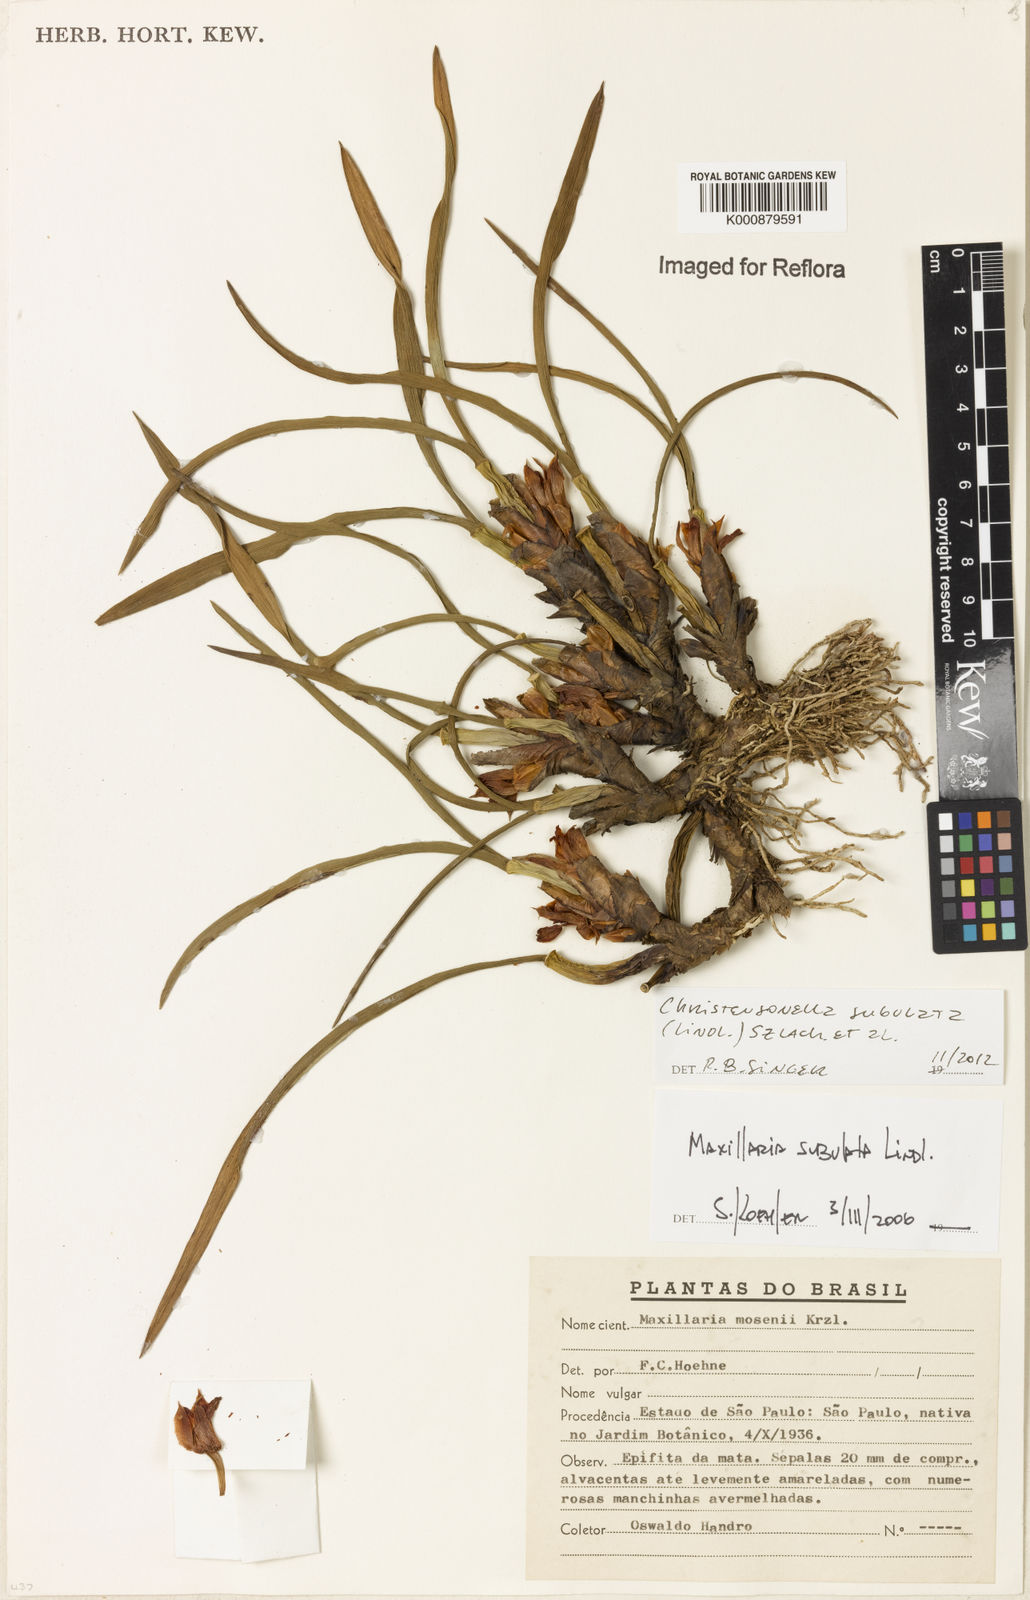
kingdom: Plantae
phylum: Tracheophyta
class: Liliopsida
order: Asparagales
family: Orchidaceae
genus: Maxillaria
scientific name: Maxillaria subulata
